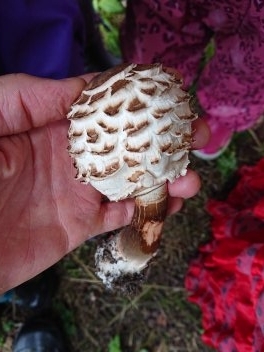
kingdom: Fungi
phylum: Basidiomycota
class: Agaricomycetes
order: Agaricales
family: Agaricaceae
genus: Chlorophyllum
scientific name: Chlorophyllum rhacodes
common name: ægte rabarberhat
